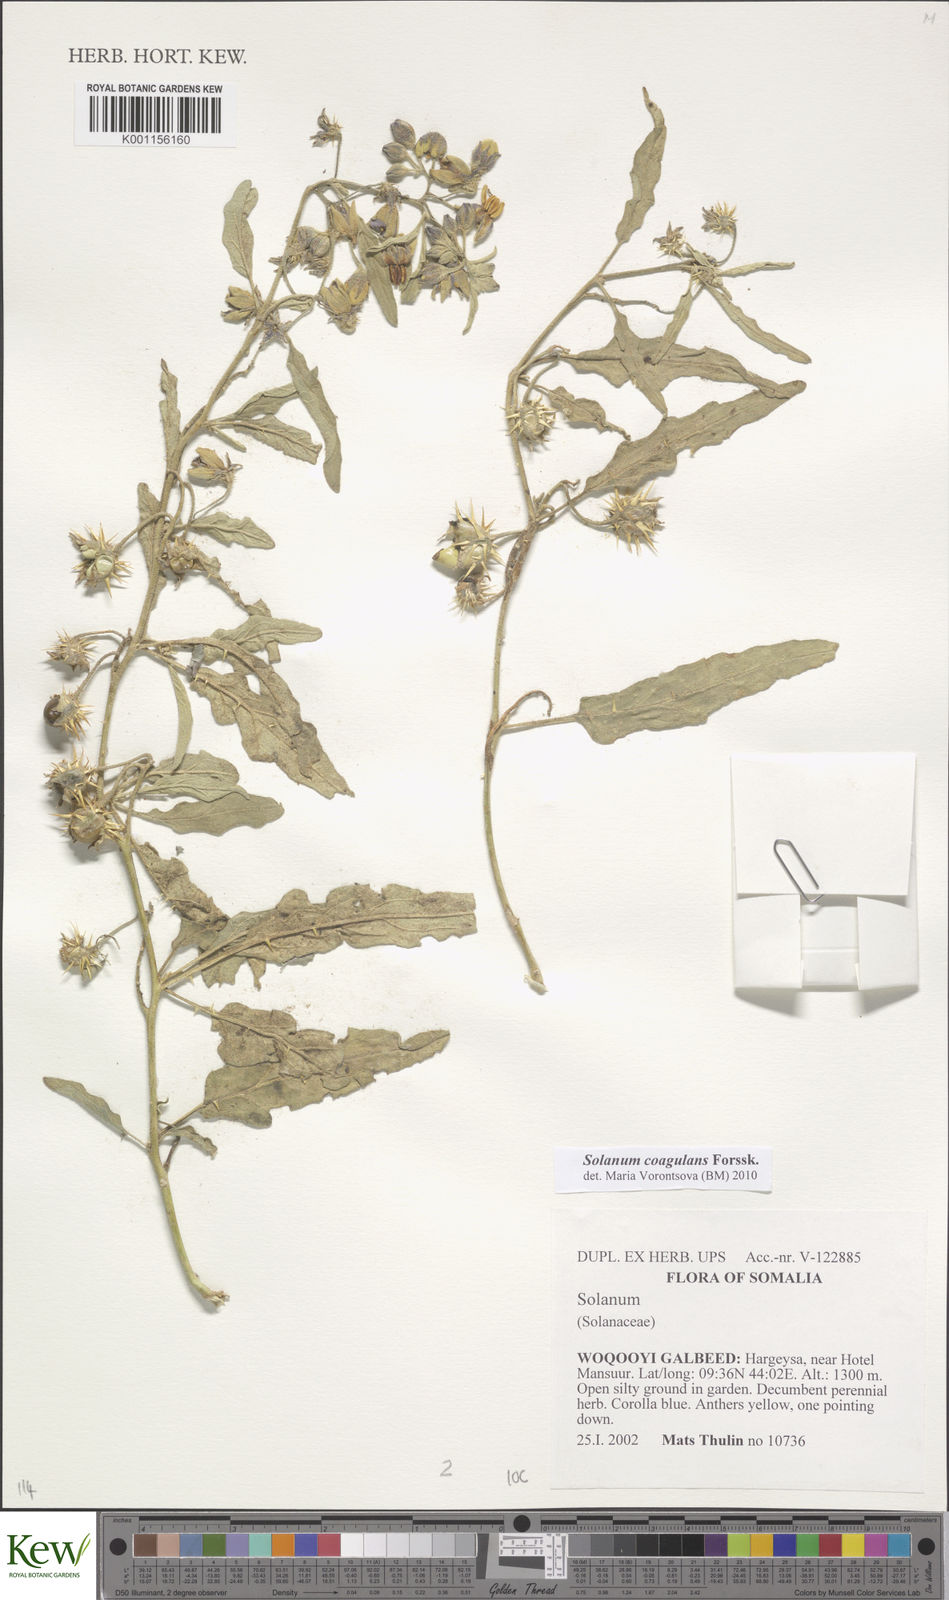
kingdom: Plantae
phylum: Tracheophyta
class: Magnoliopsida
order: Solanales
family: Solanaceae
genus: Solanum
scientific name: Solanum coagulans
